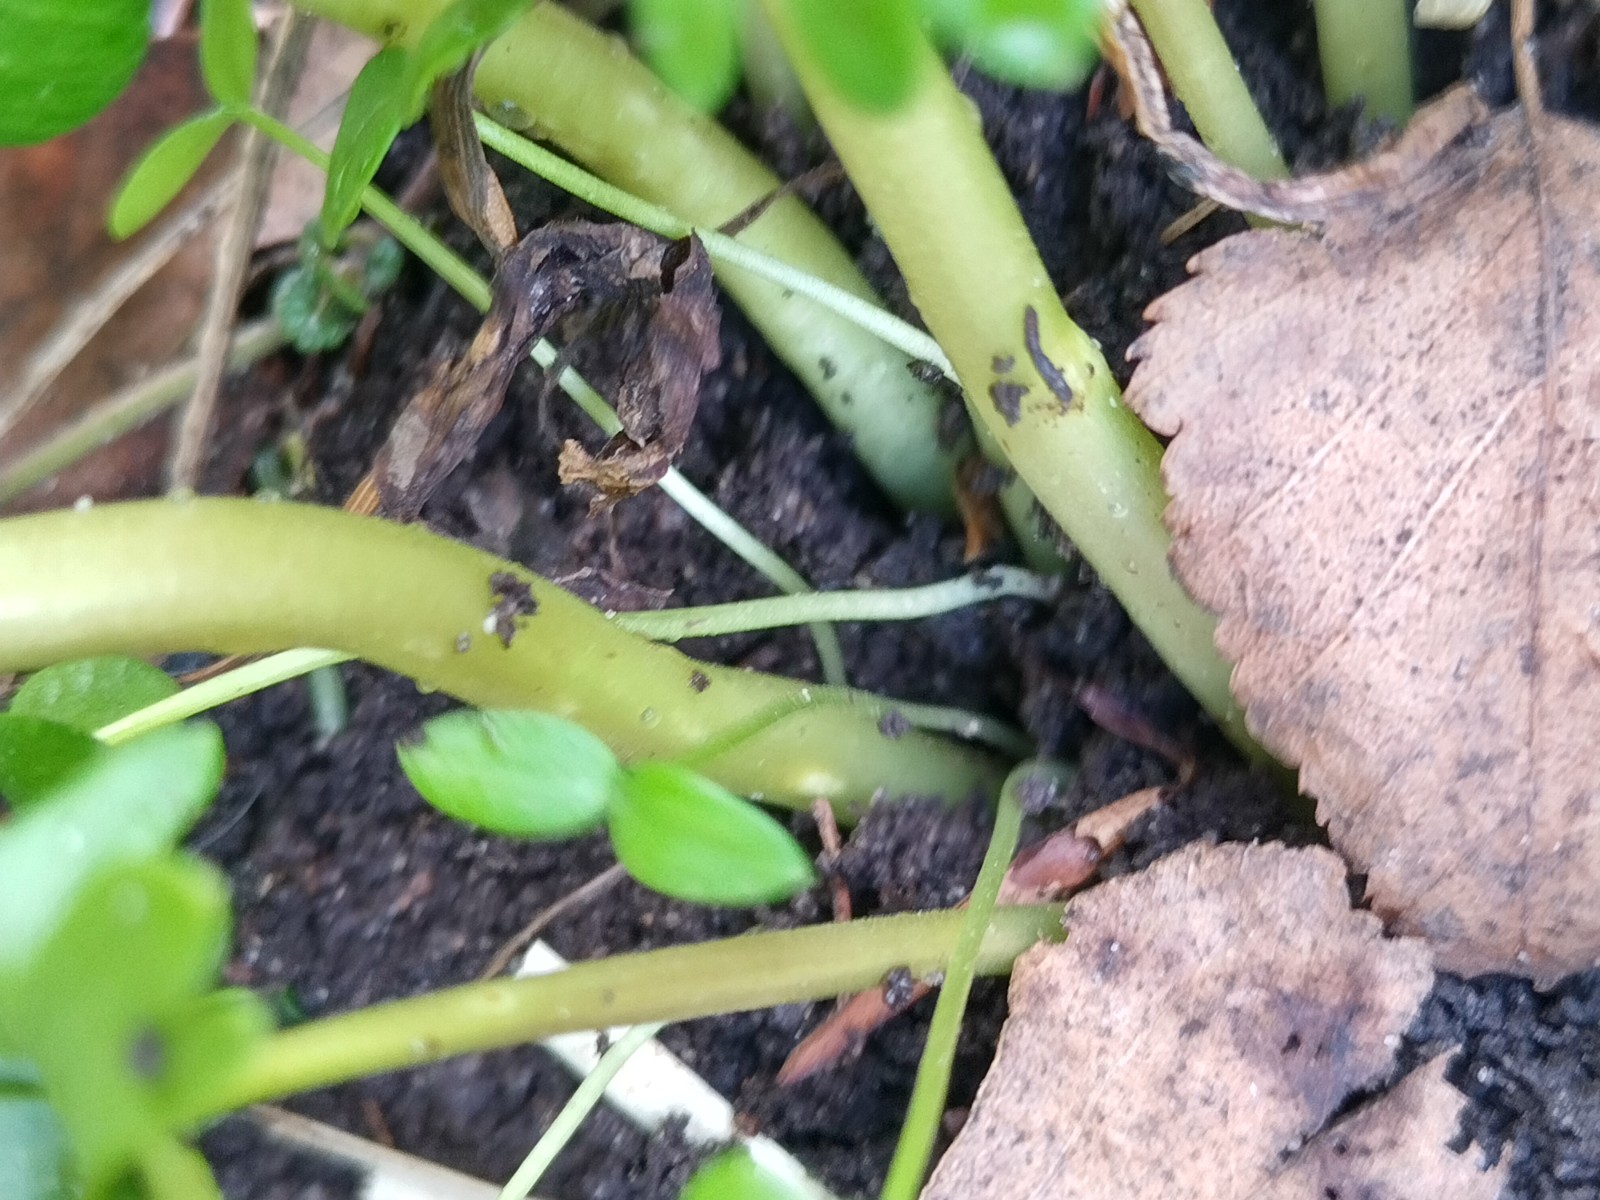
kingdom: Fungi
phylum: Basidiomycota
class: Ustilaginomycetes
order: Urocystidales
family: Urocystidaceae
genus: Urocystis
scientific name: Urocystis eranthidis
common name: erantis-brand
